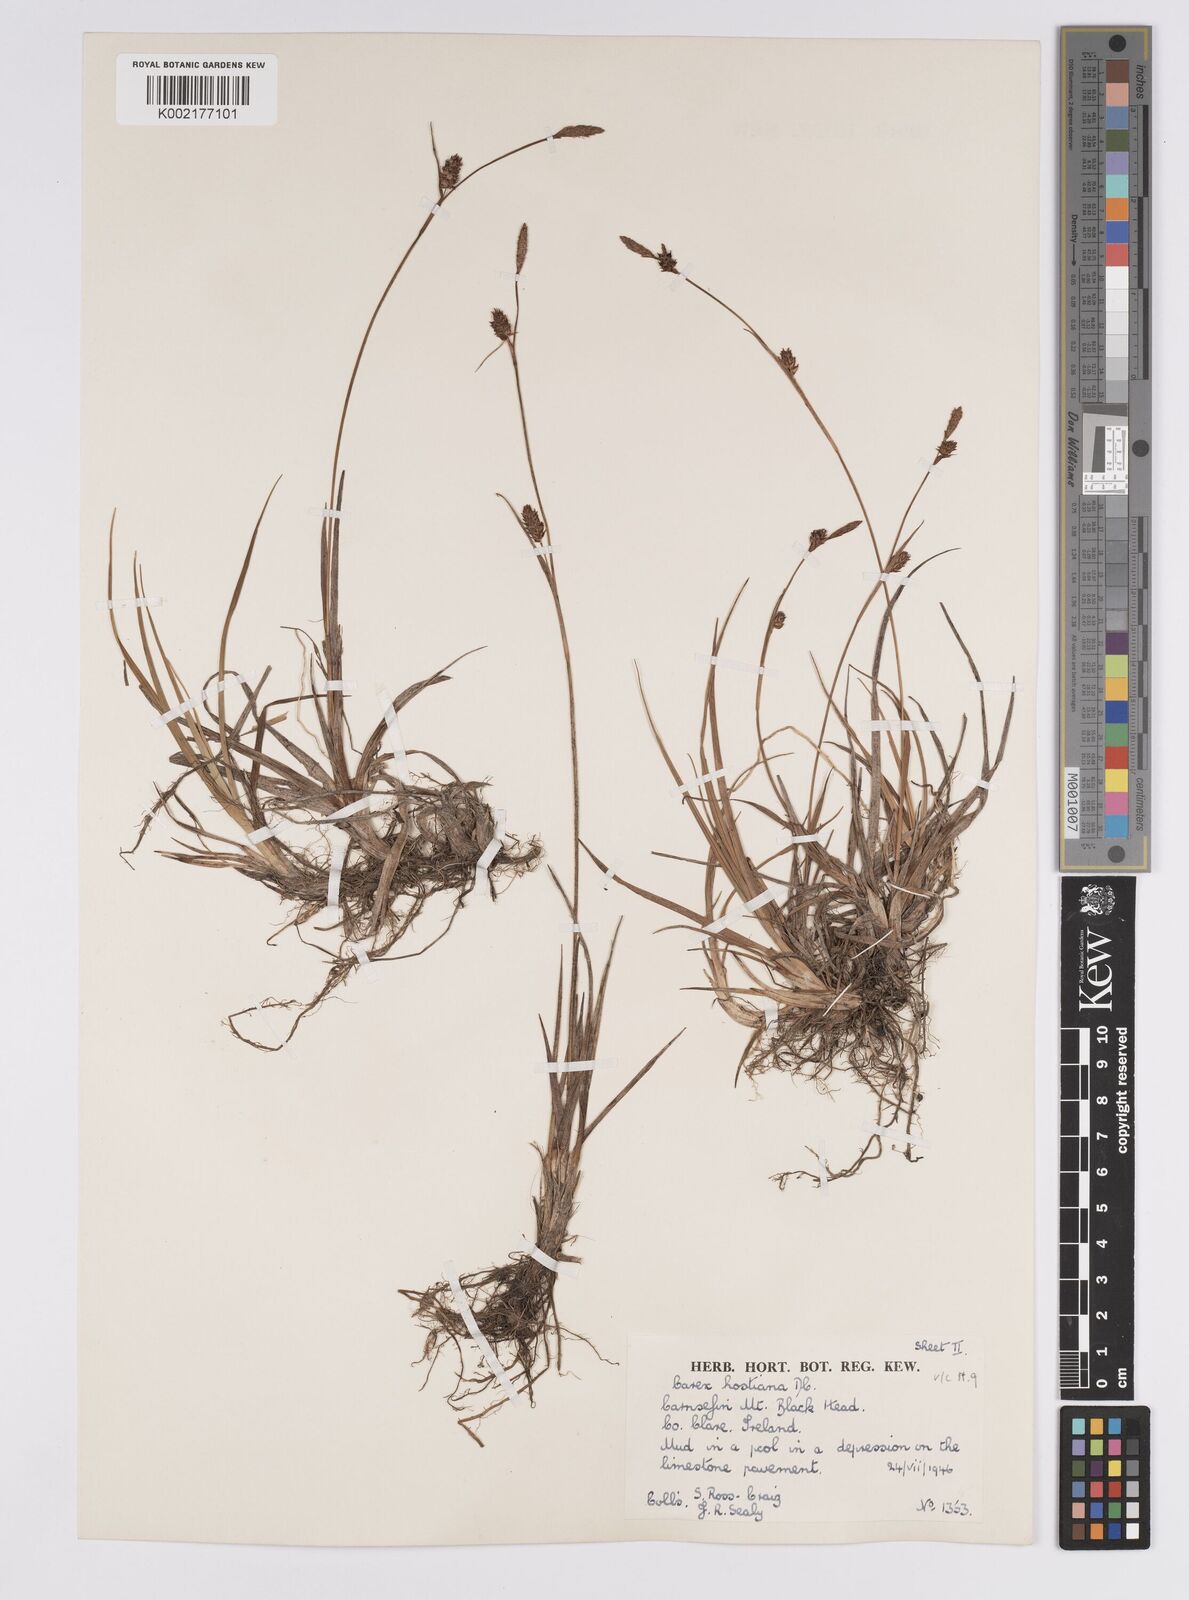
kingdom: Plantae
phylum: Tracheophyta
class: Liliopsida
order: Poales
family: Cyperaceae
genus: Carex
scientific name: Carex hostiana
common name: Tawny sedge
